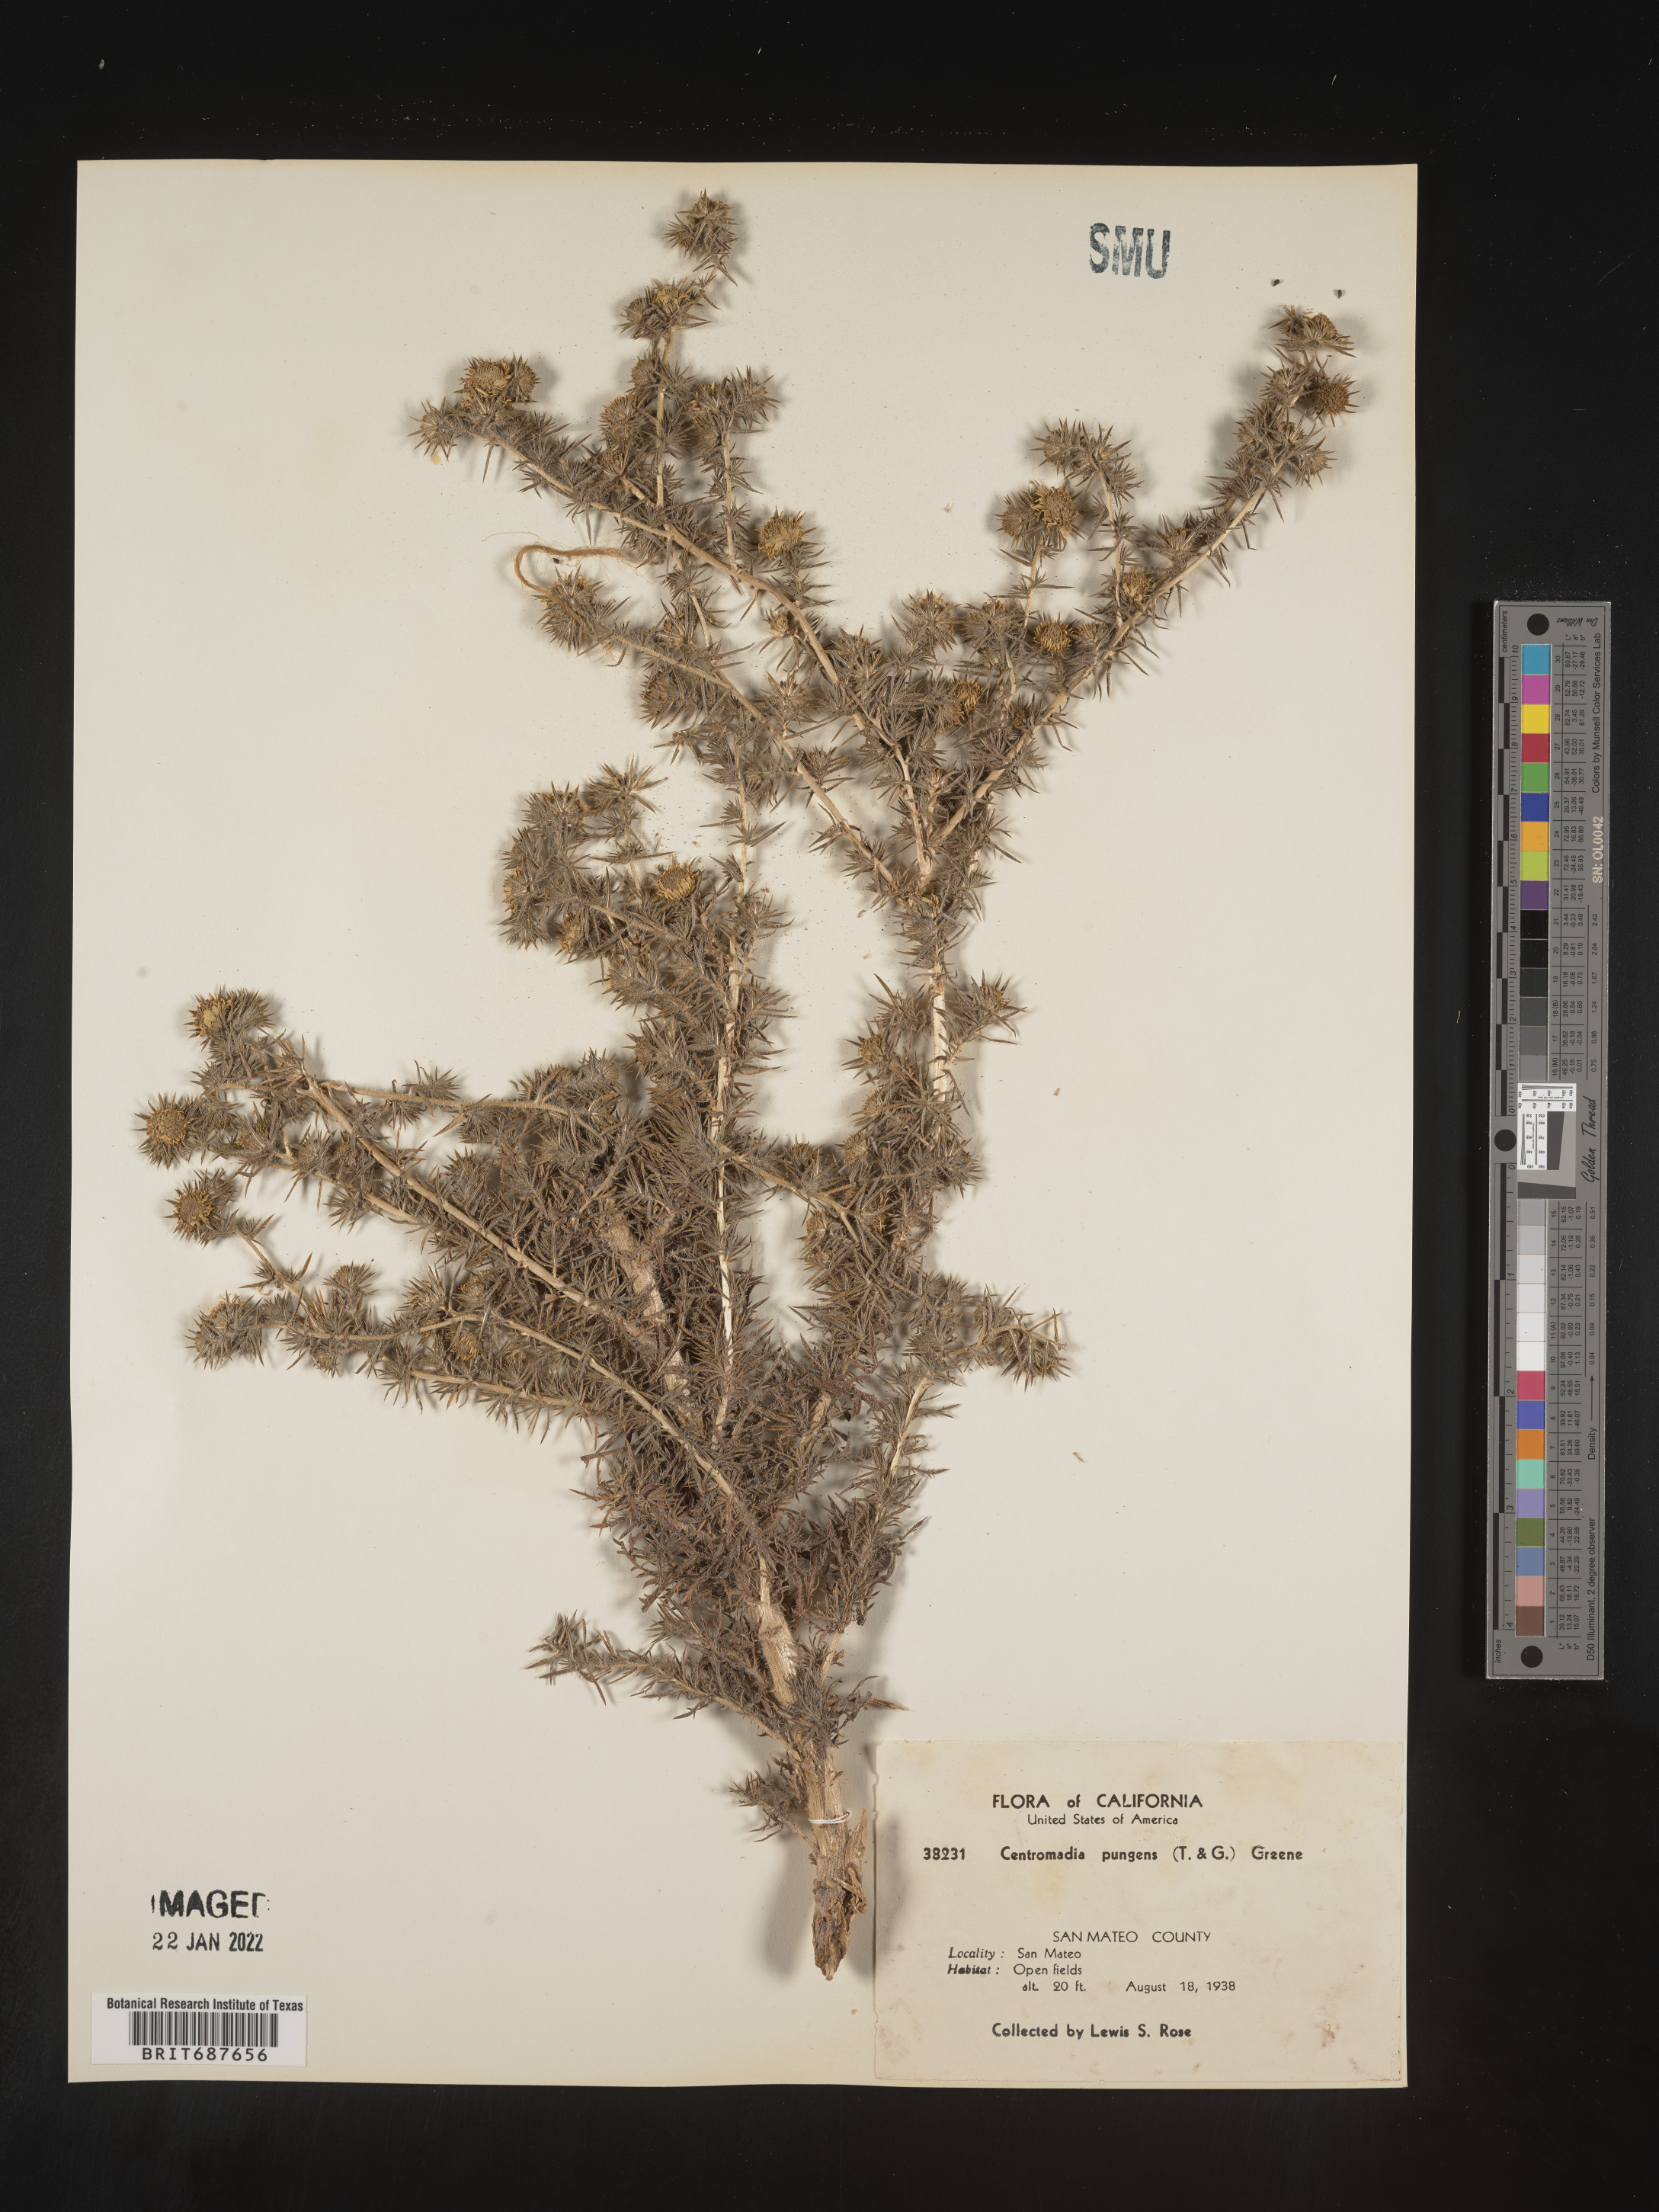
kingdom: Plantae
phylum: Tracheophyta
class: Magnoliopsida
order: Asterales
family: Asteraceae
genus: Centromadia
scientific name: Centromadia
